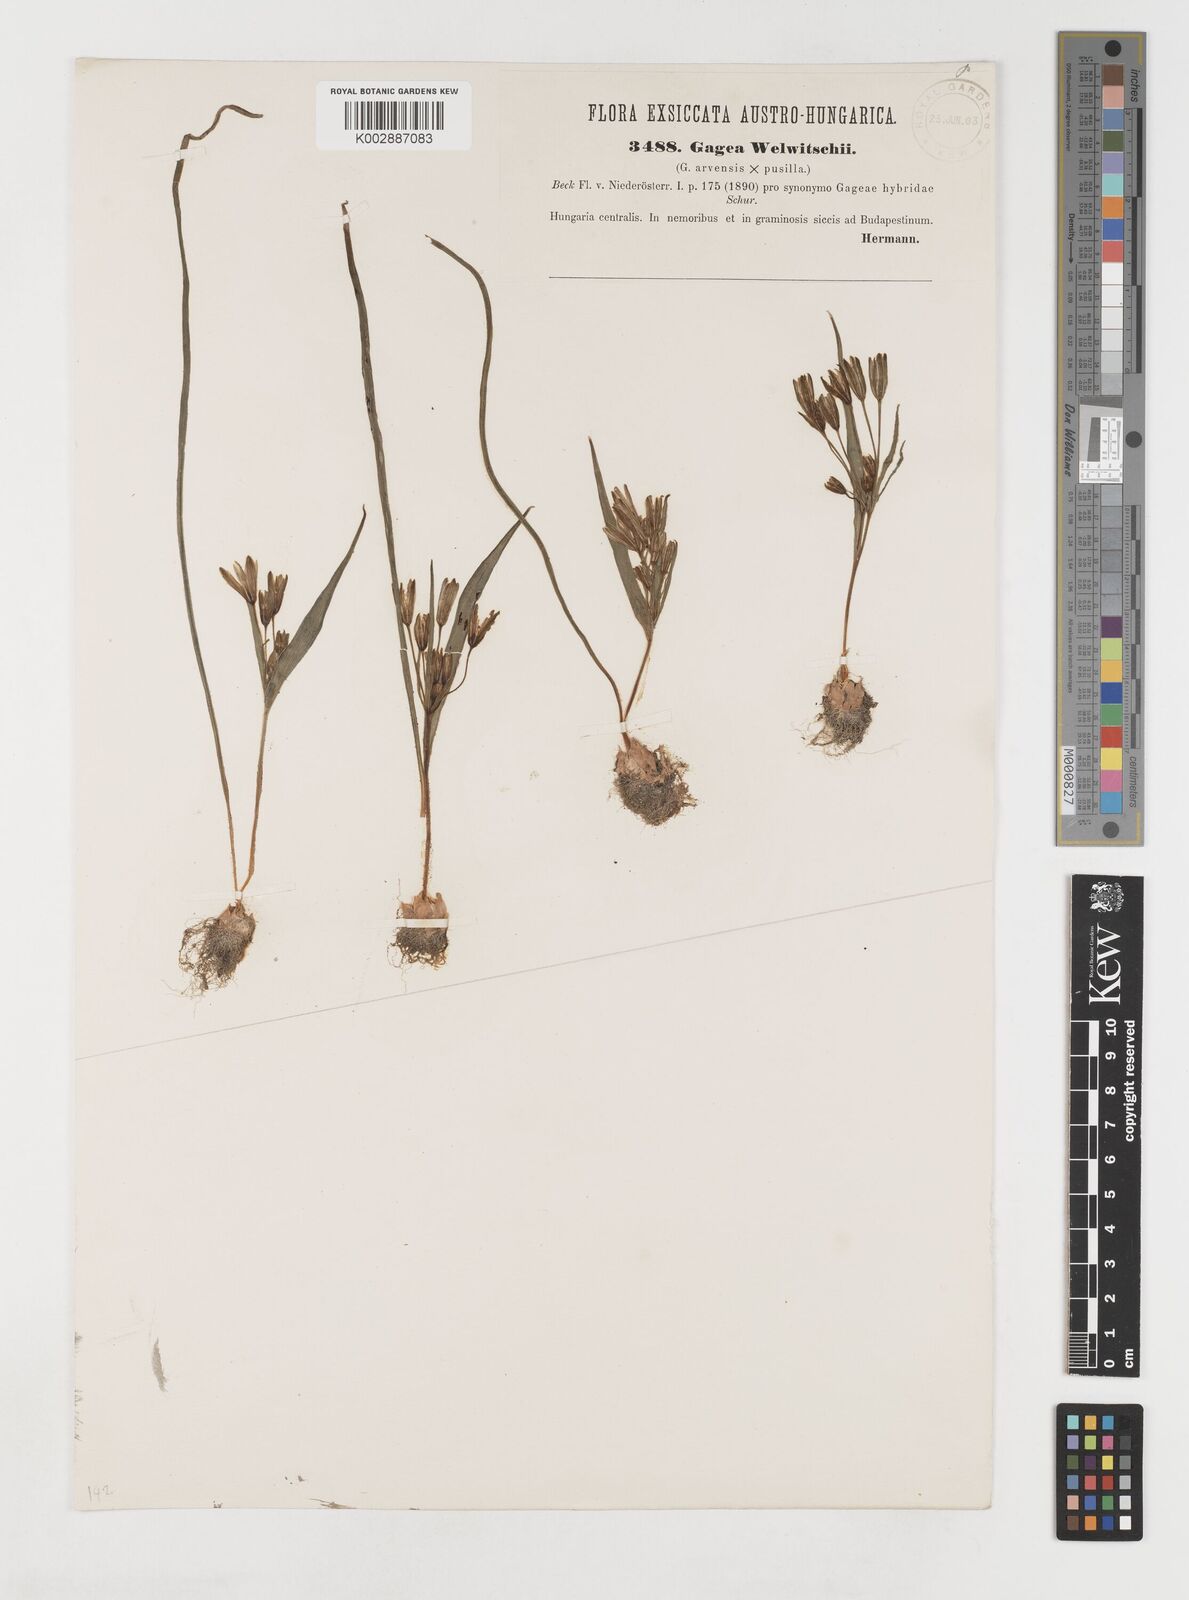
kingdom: Plantae
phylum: Tracheophyta
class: Liliopsida
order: Liliales
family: Liliaceae
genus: Gagea
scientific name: Gagea minima
